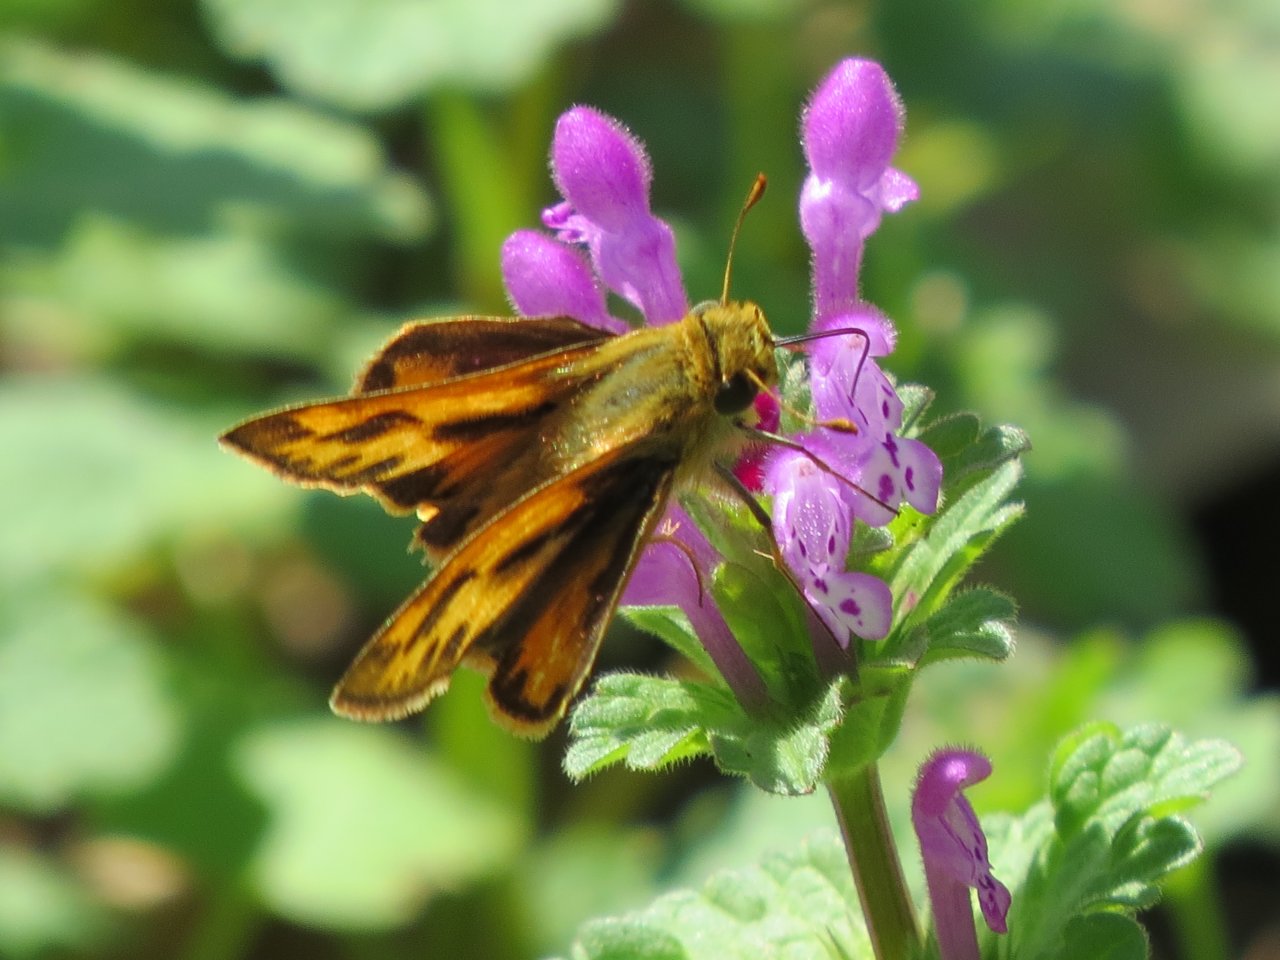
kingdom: Animalia
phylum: Arthropoda
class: Insecta
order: Lepidoptera
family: Hesperiidae
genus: Hylephila
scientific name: Hylephila phyleus
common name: Fiery Skipper
